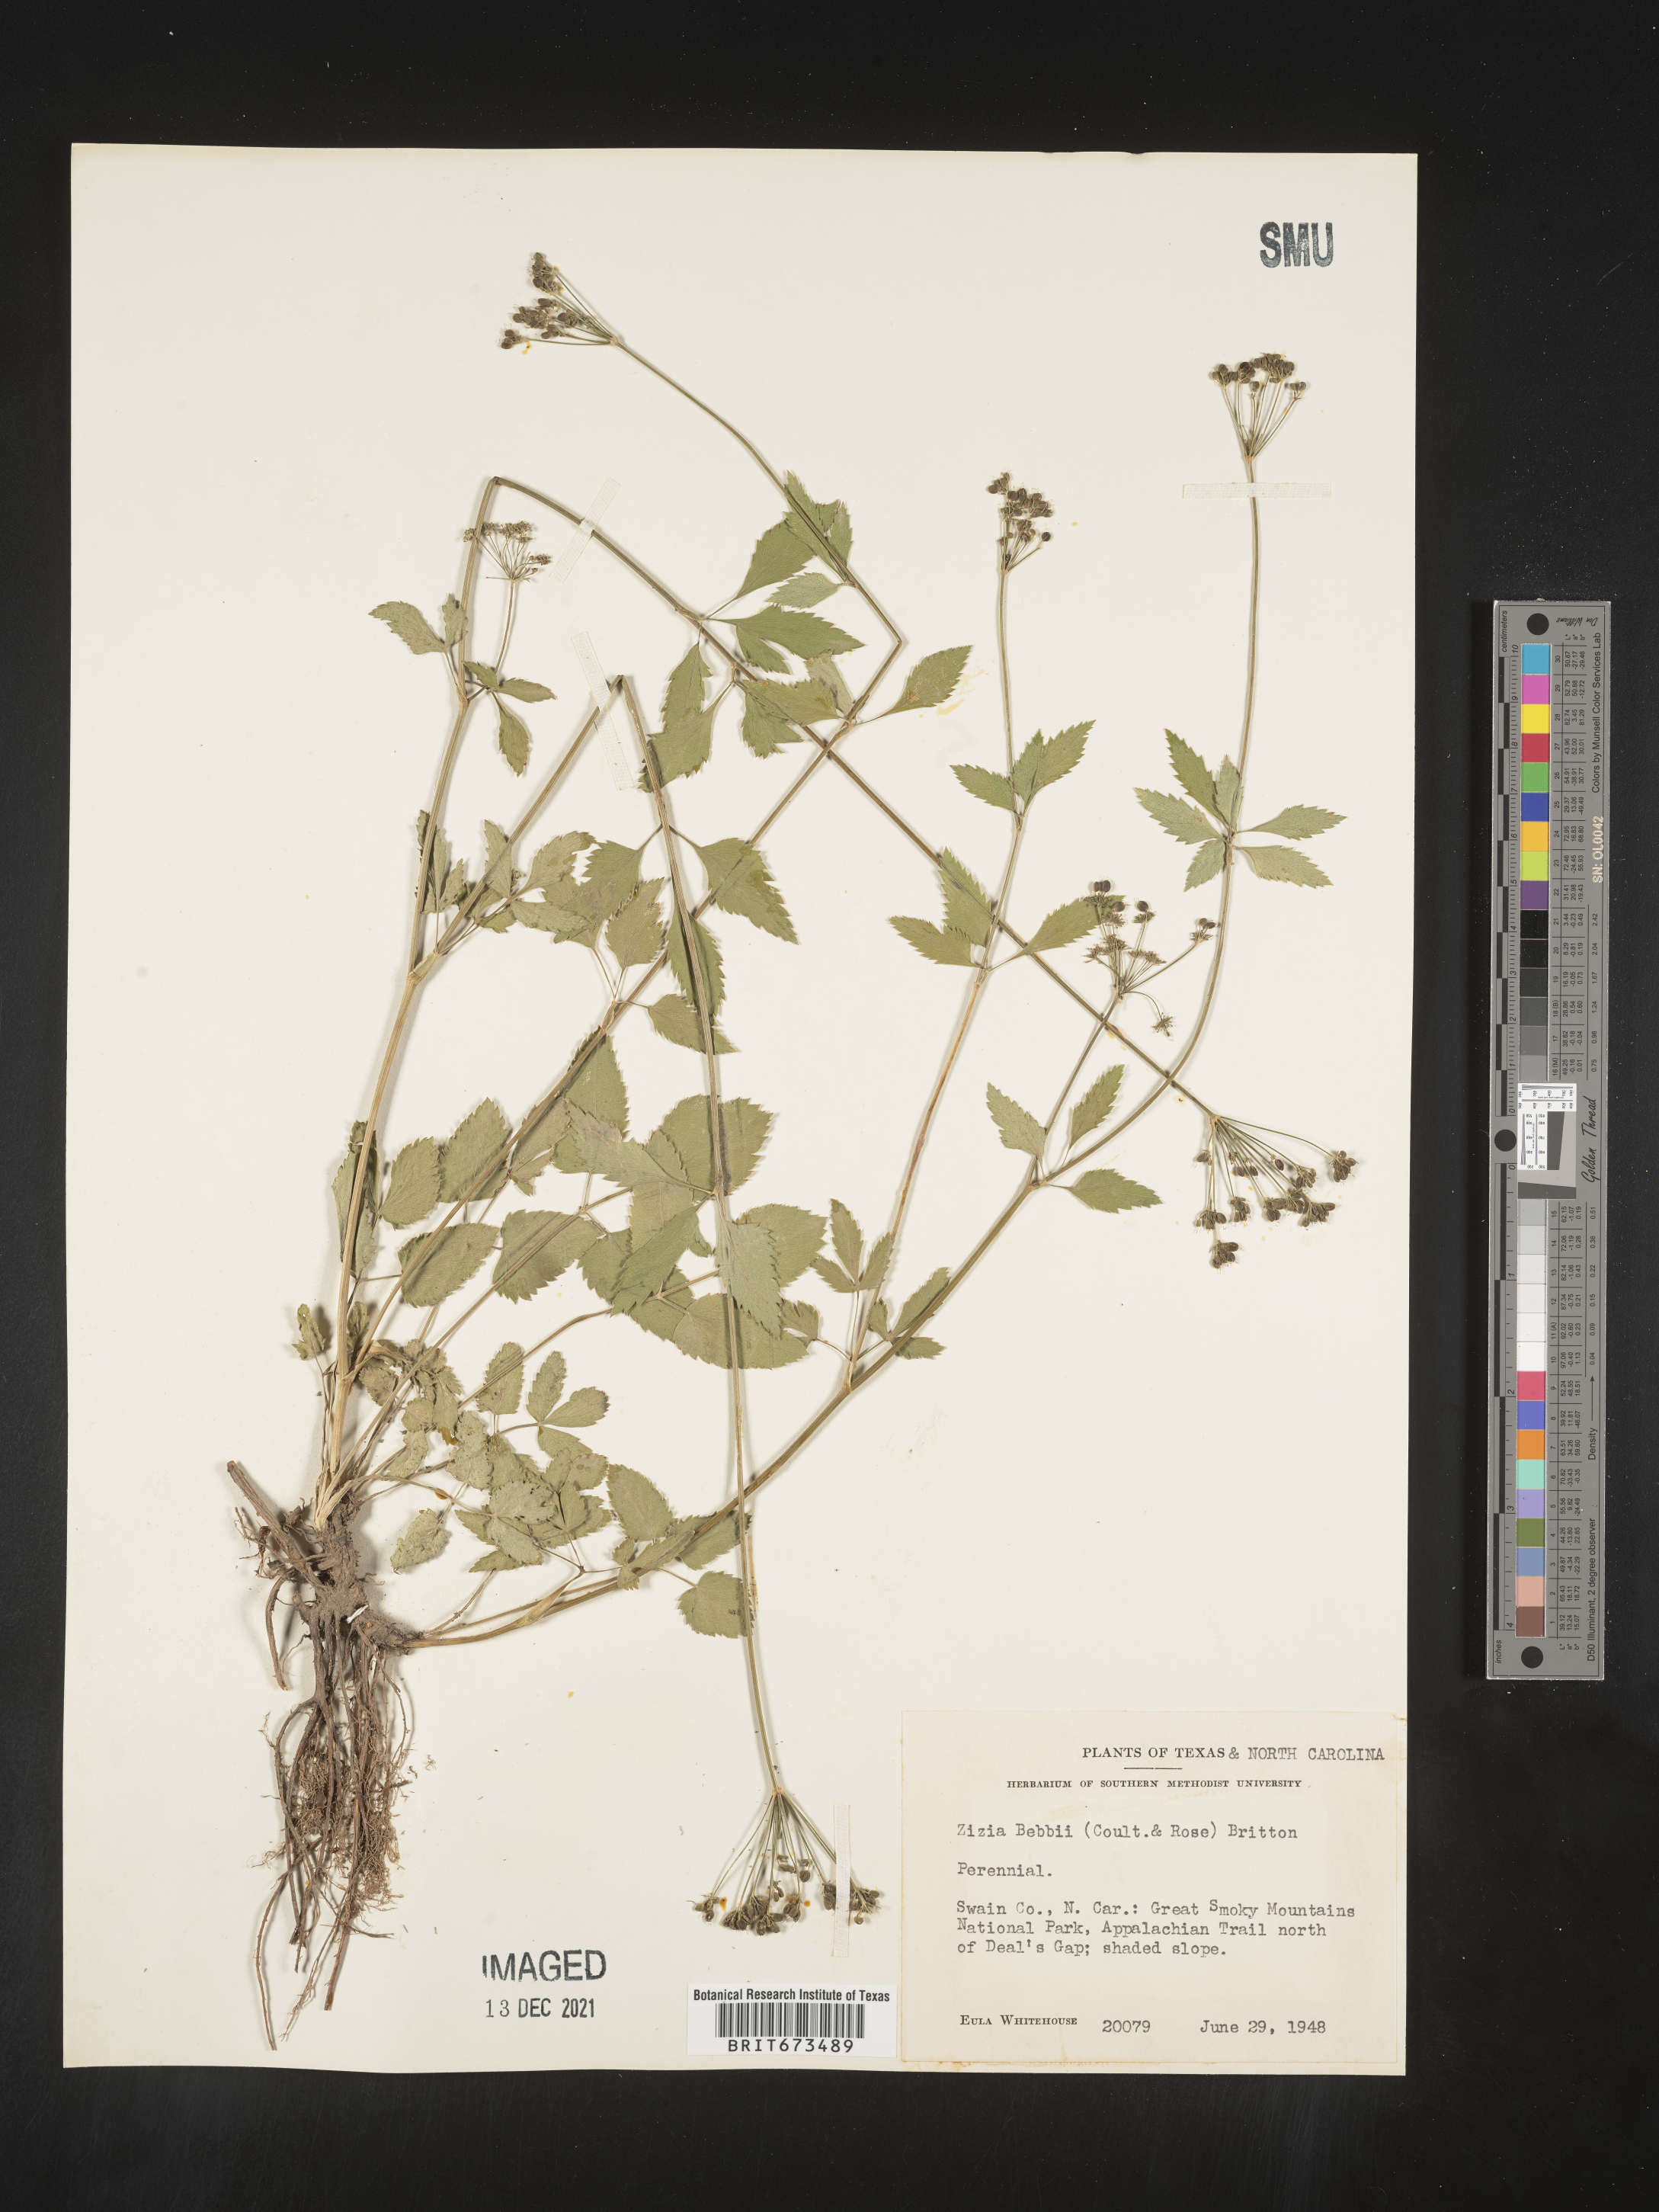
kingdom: Plantae
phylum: Tracheophyta
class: Magnoliopsida
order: Apiales
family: Apiaceae
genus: Zizia
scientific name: Zizia trifoliata
